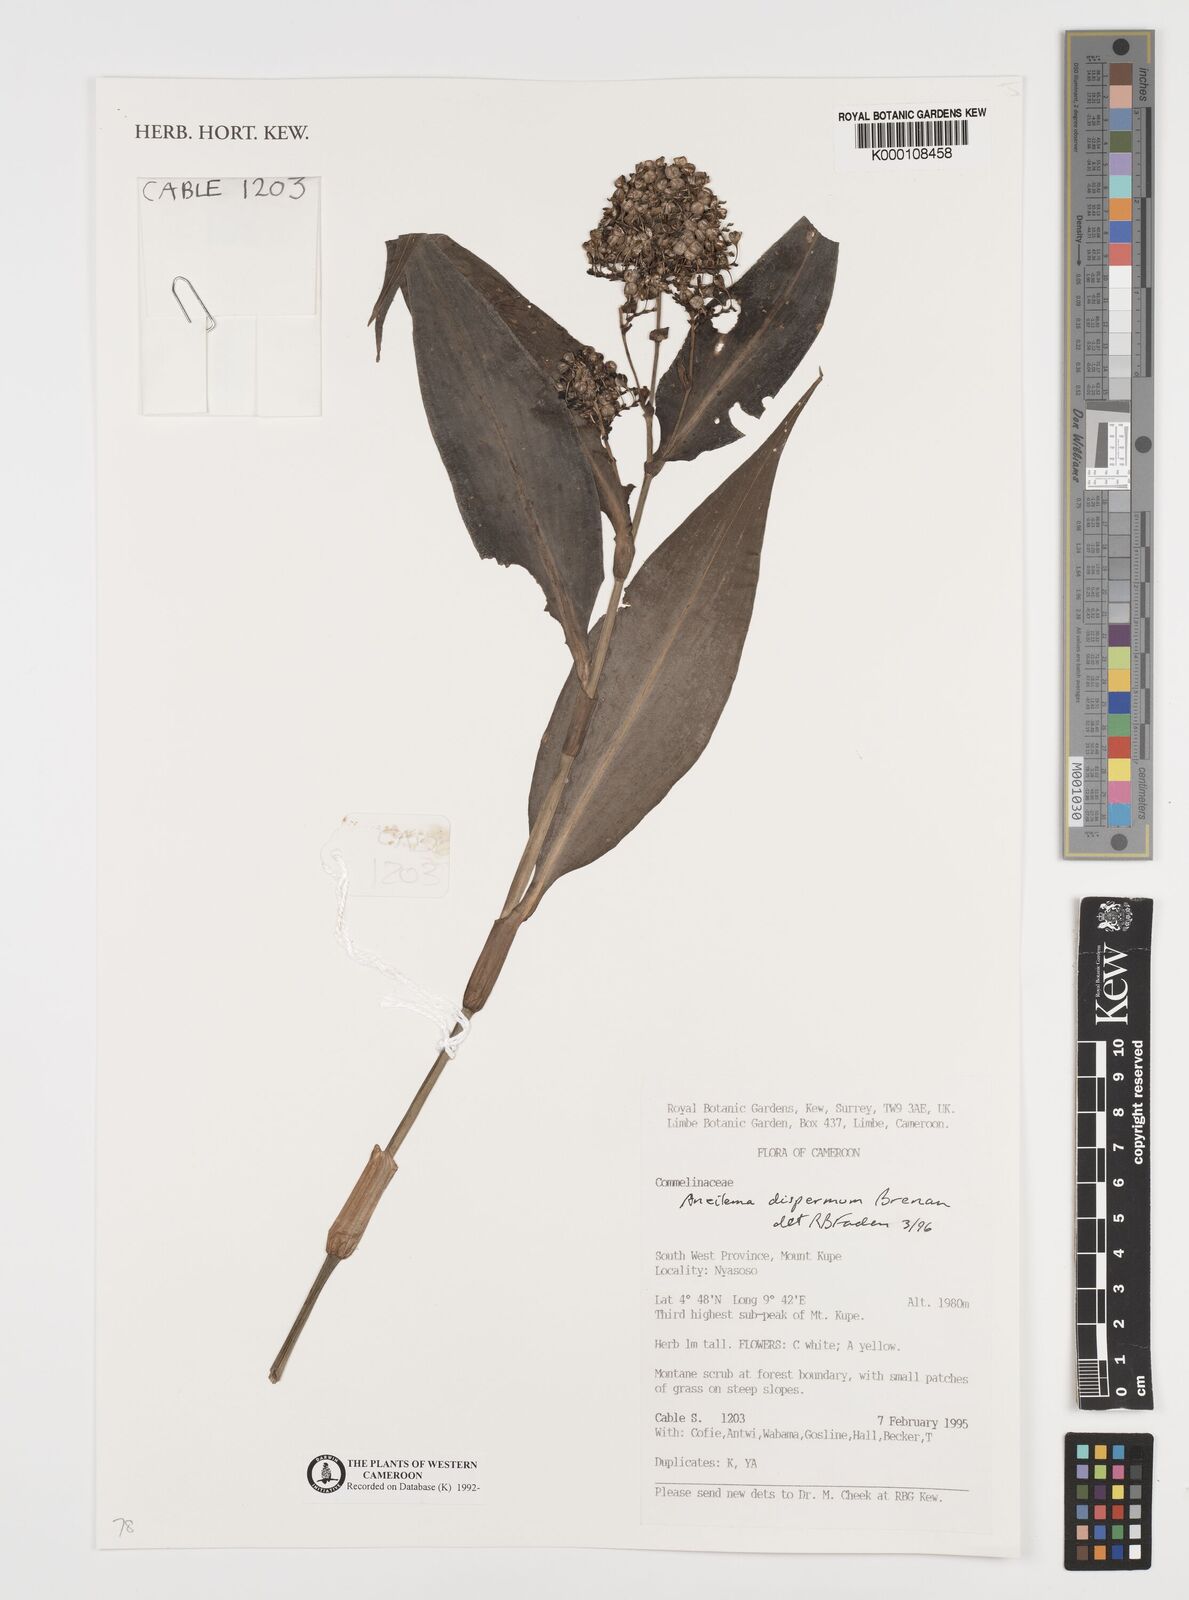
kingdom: Plantae
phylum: Tracheophyta
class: Liliopsida
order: Commelinales
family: Commelinaceae
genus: Aneilema
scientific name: Aneilema dispermum
